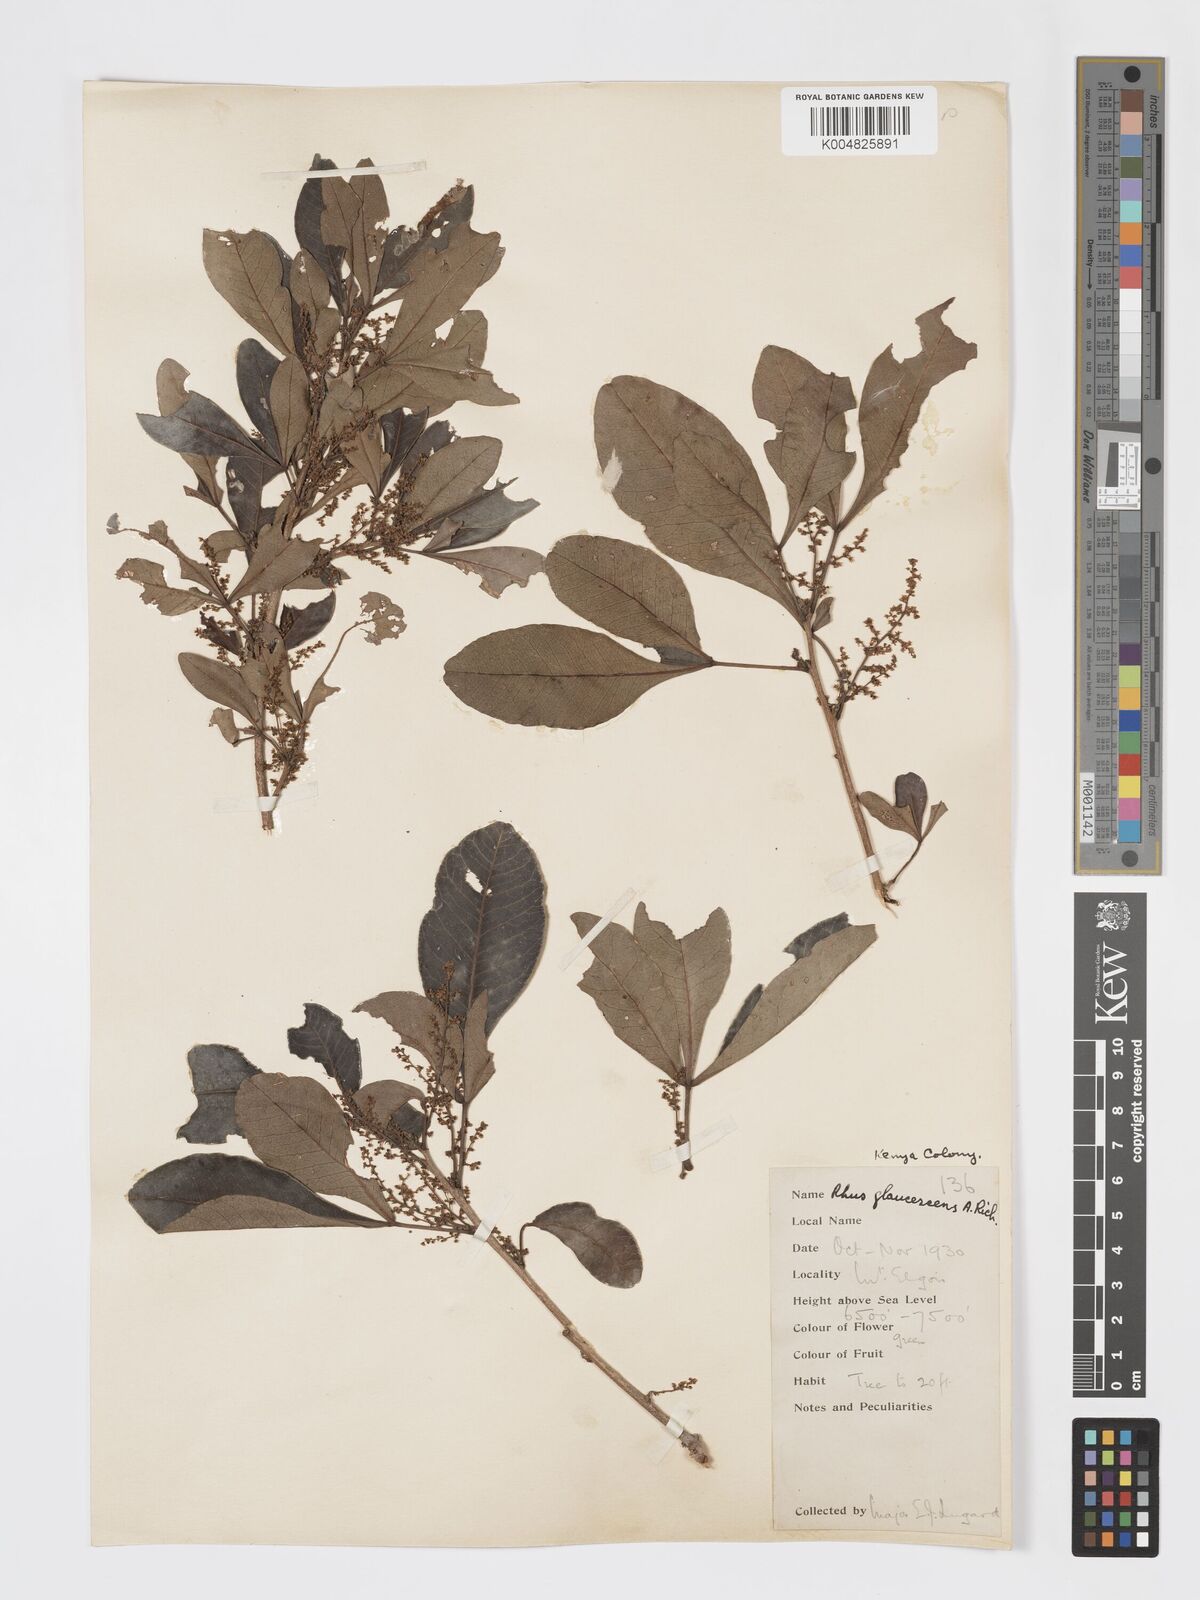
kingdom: Plantae
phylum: Tracheophyta
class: Magnoliopsida
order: Sapindales
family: Anacardiaceae
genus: Searsia
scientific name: Searsia natalensis
